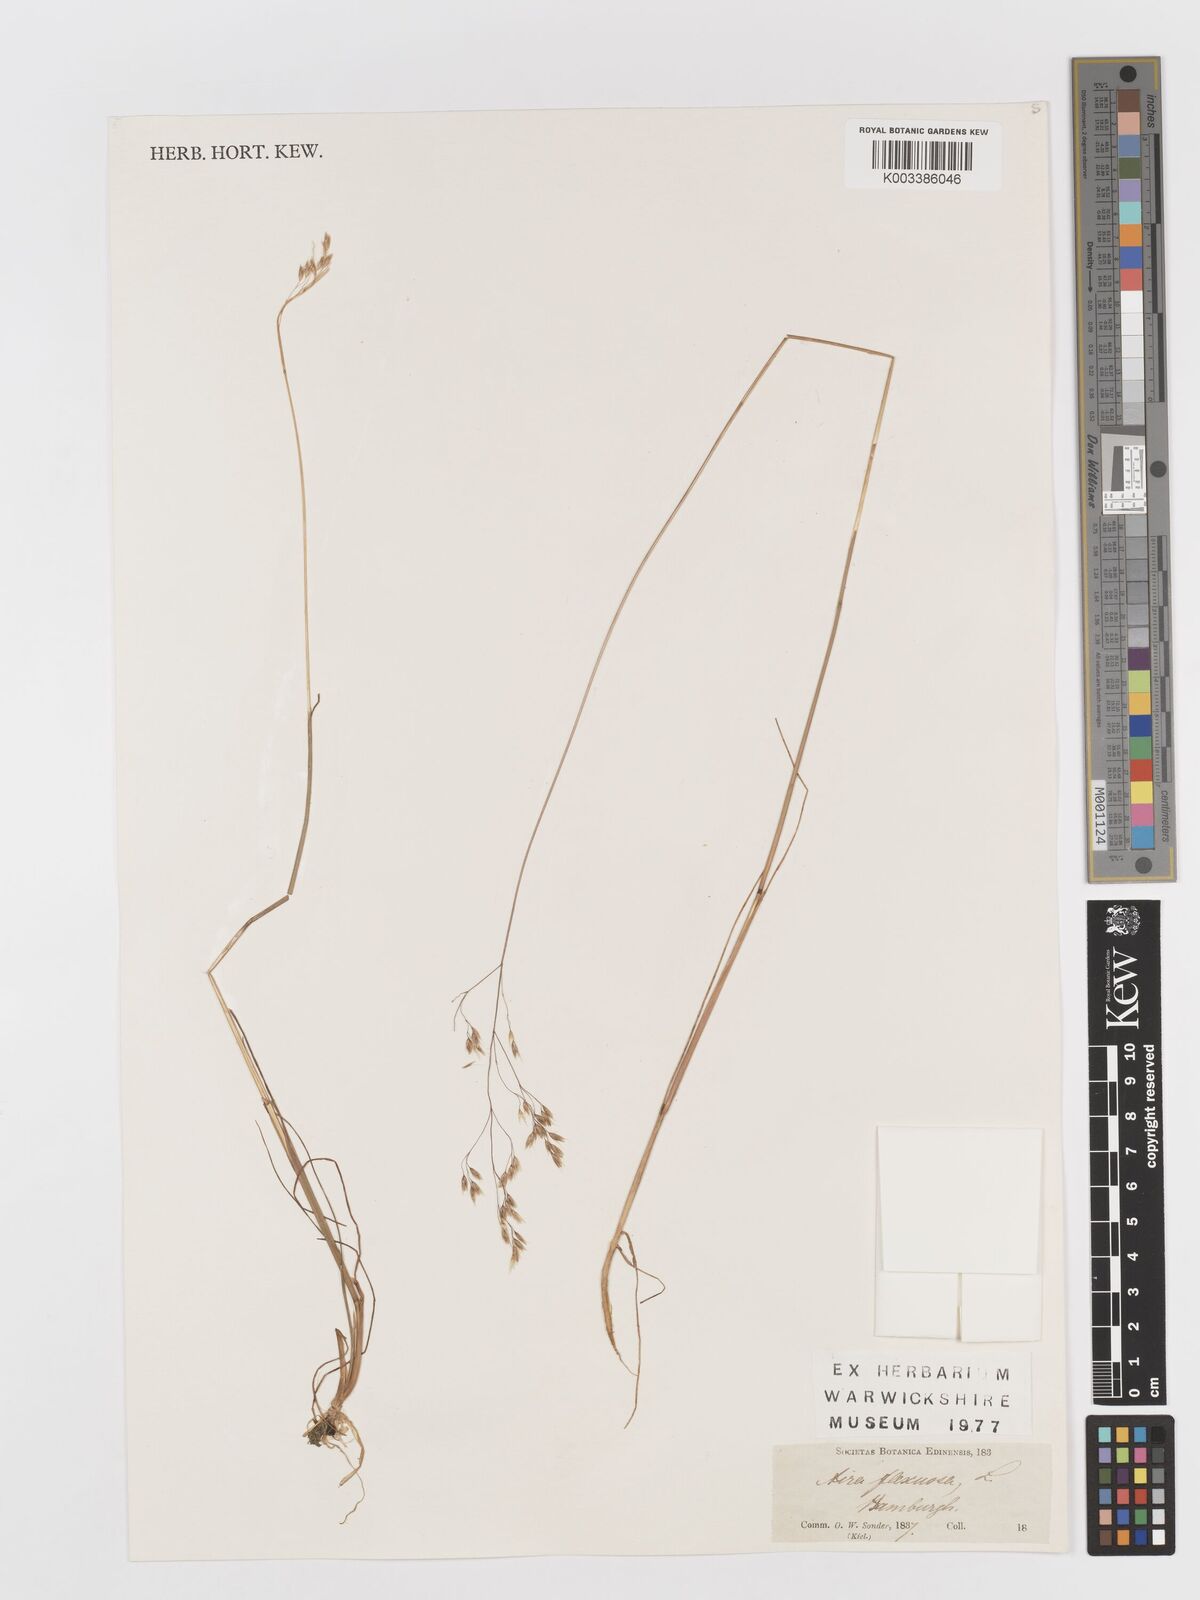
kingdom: Plantae
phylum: Tracheophyta
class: Liliopsida
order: Poales
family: Poaceae
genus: Avenella
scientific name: Avenella flexuosa
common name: Wavy hairgrass
